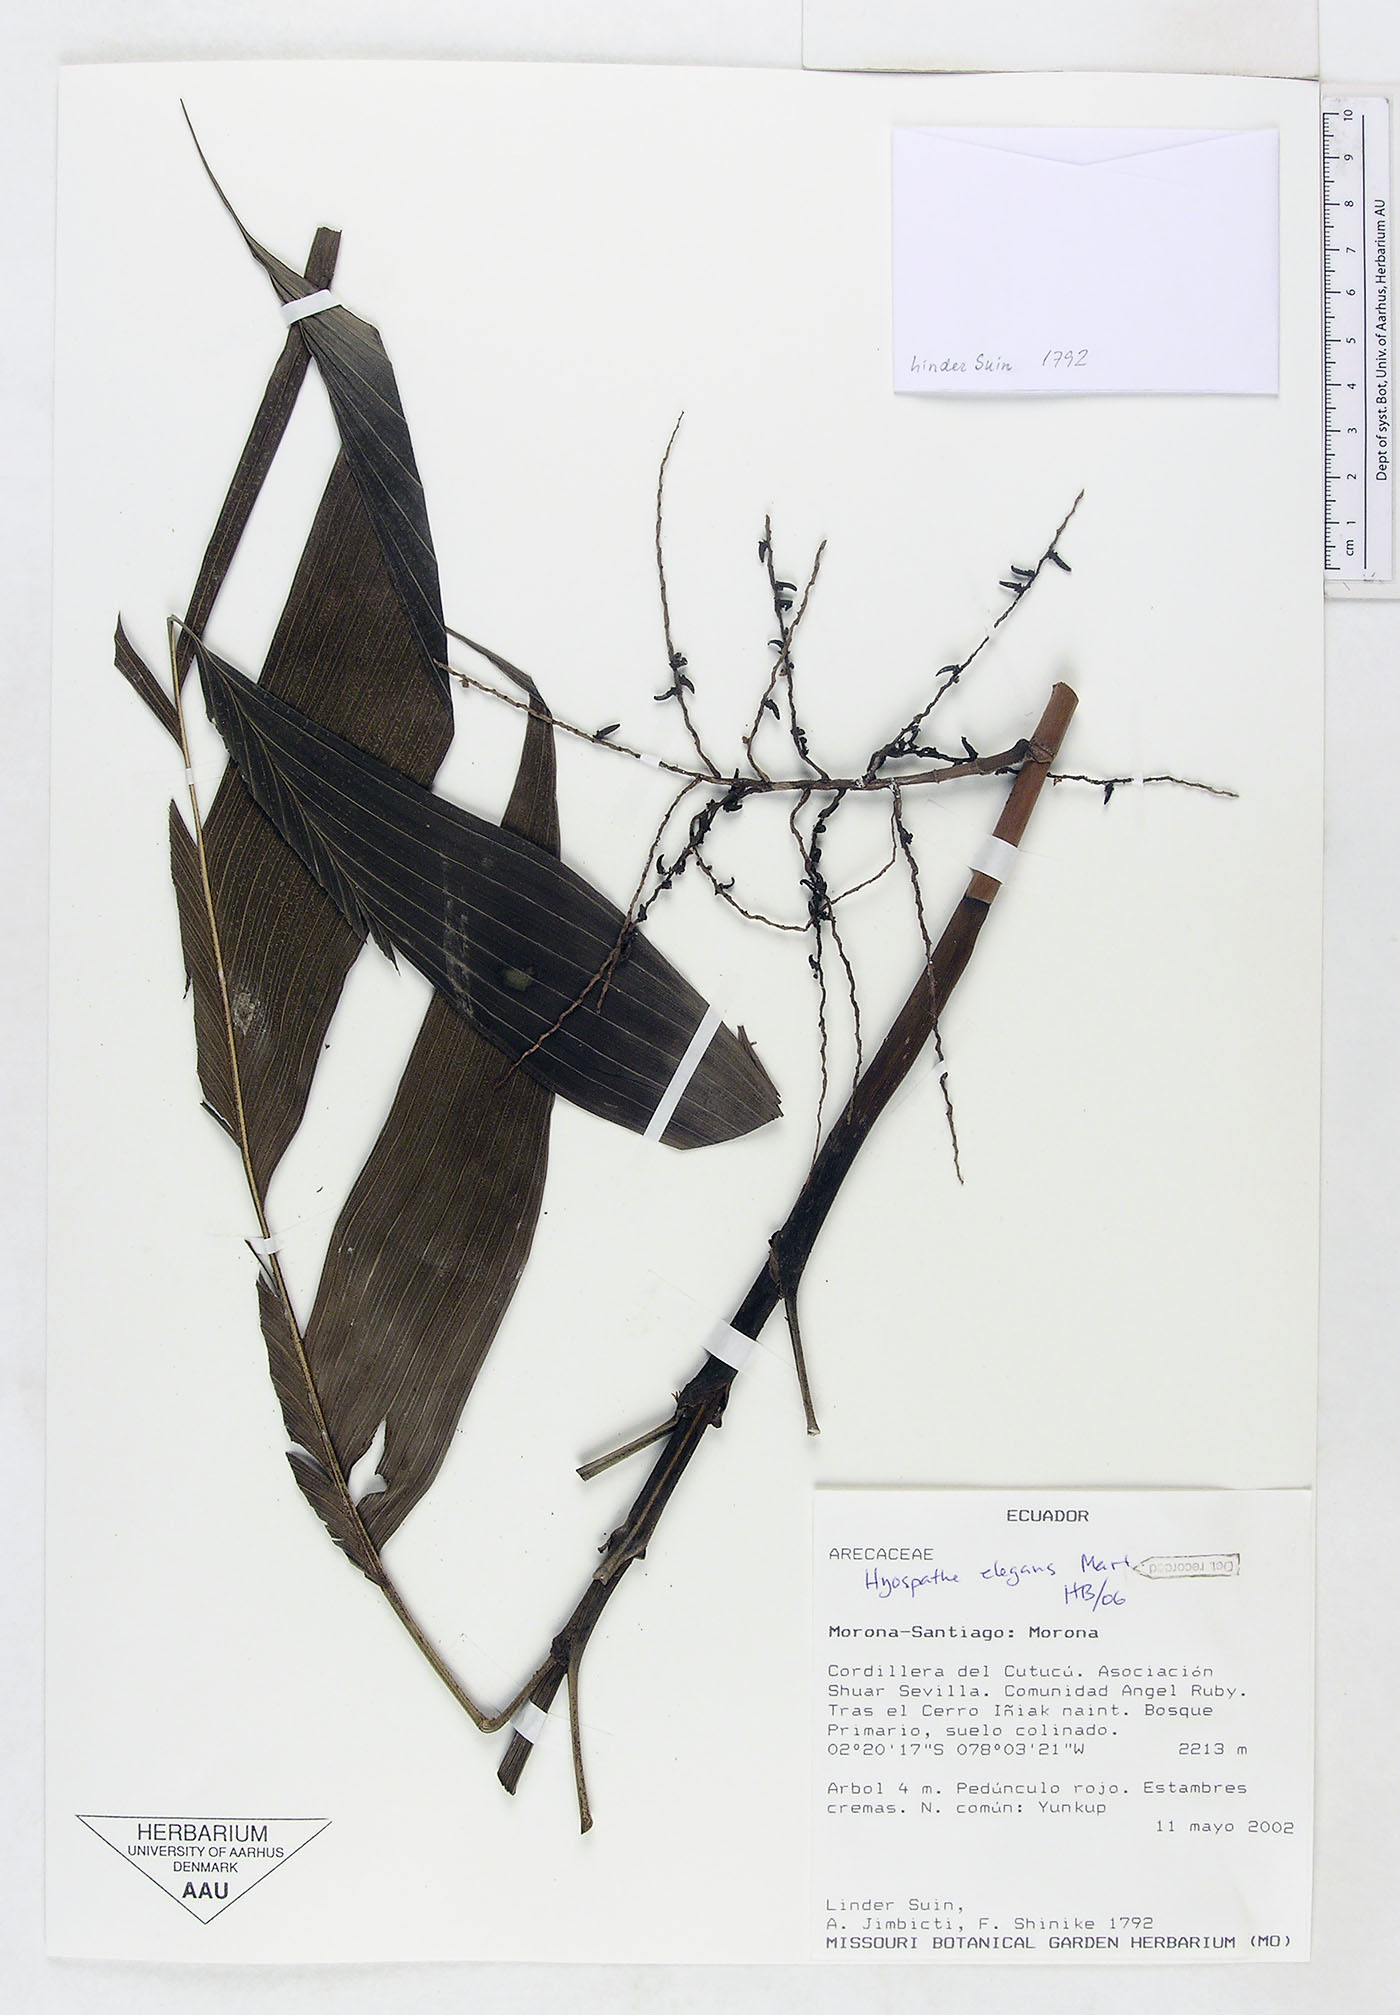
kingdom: Plantae
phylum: Tracheophyta
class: Liliopsida
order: Arecales
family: Arecaceae
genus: Hyospathe
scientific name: Hyospathe elegans
